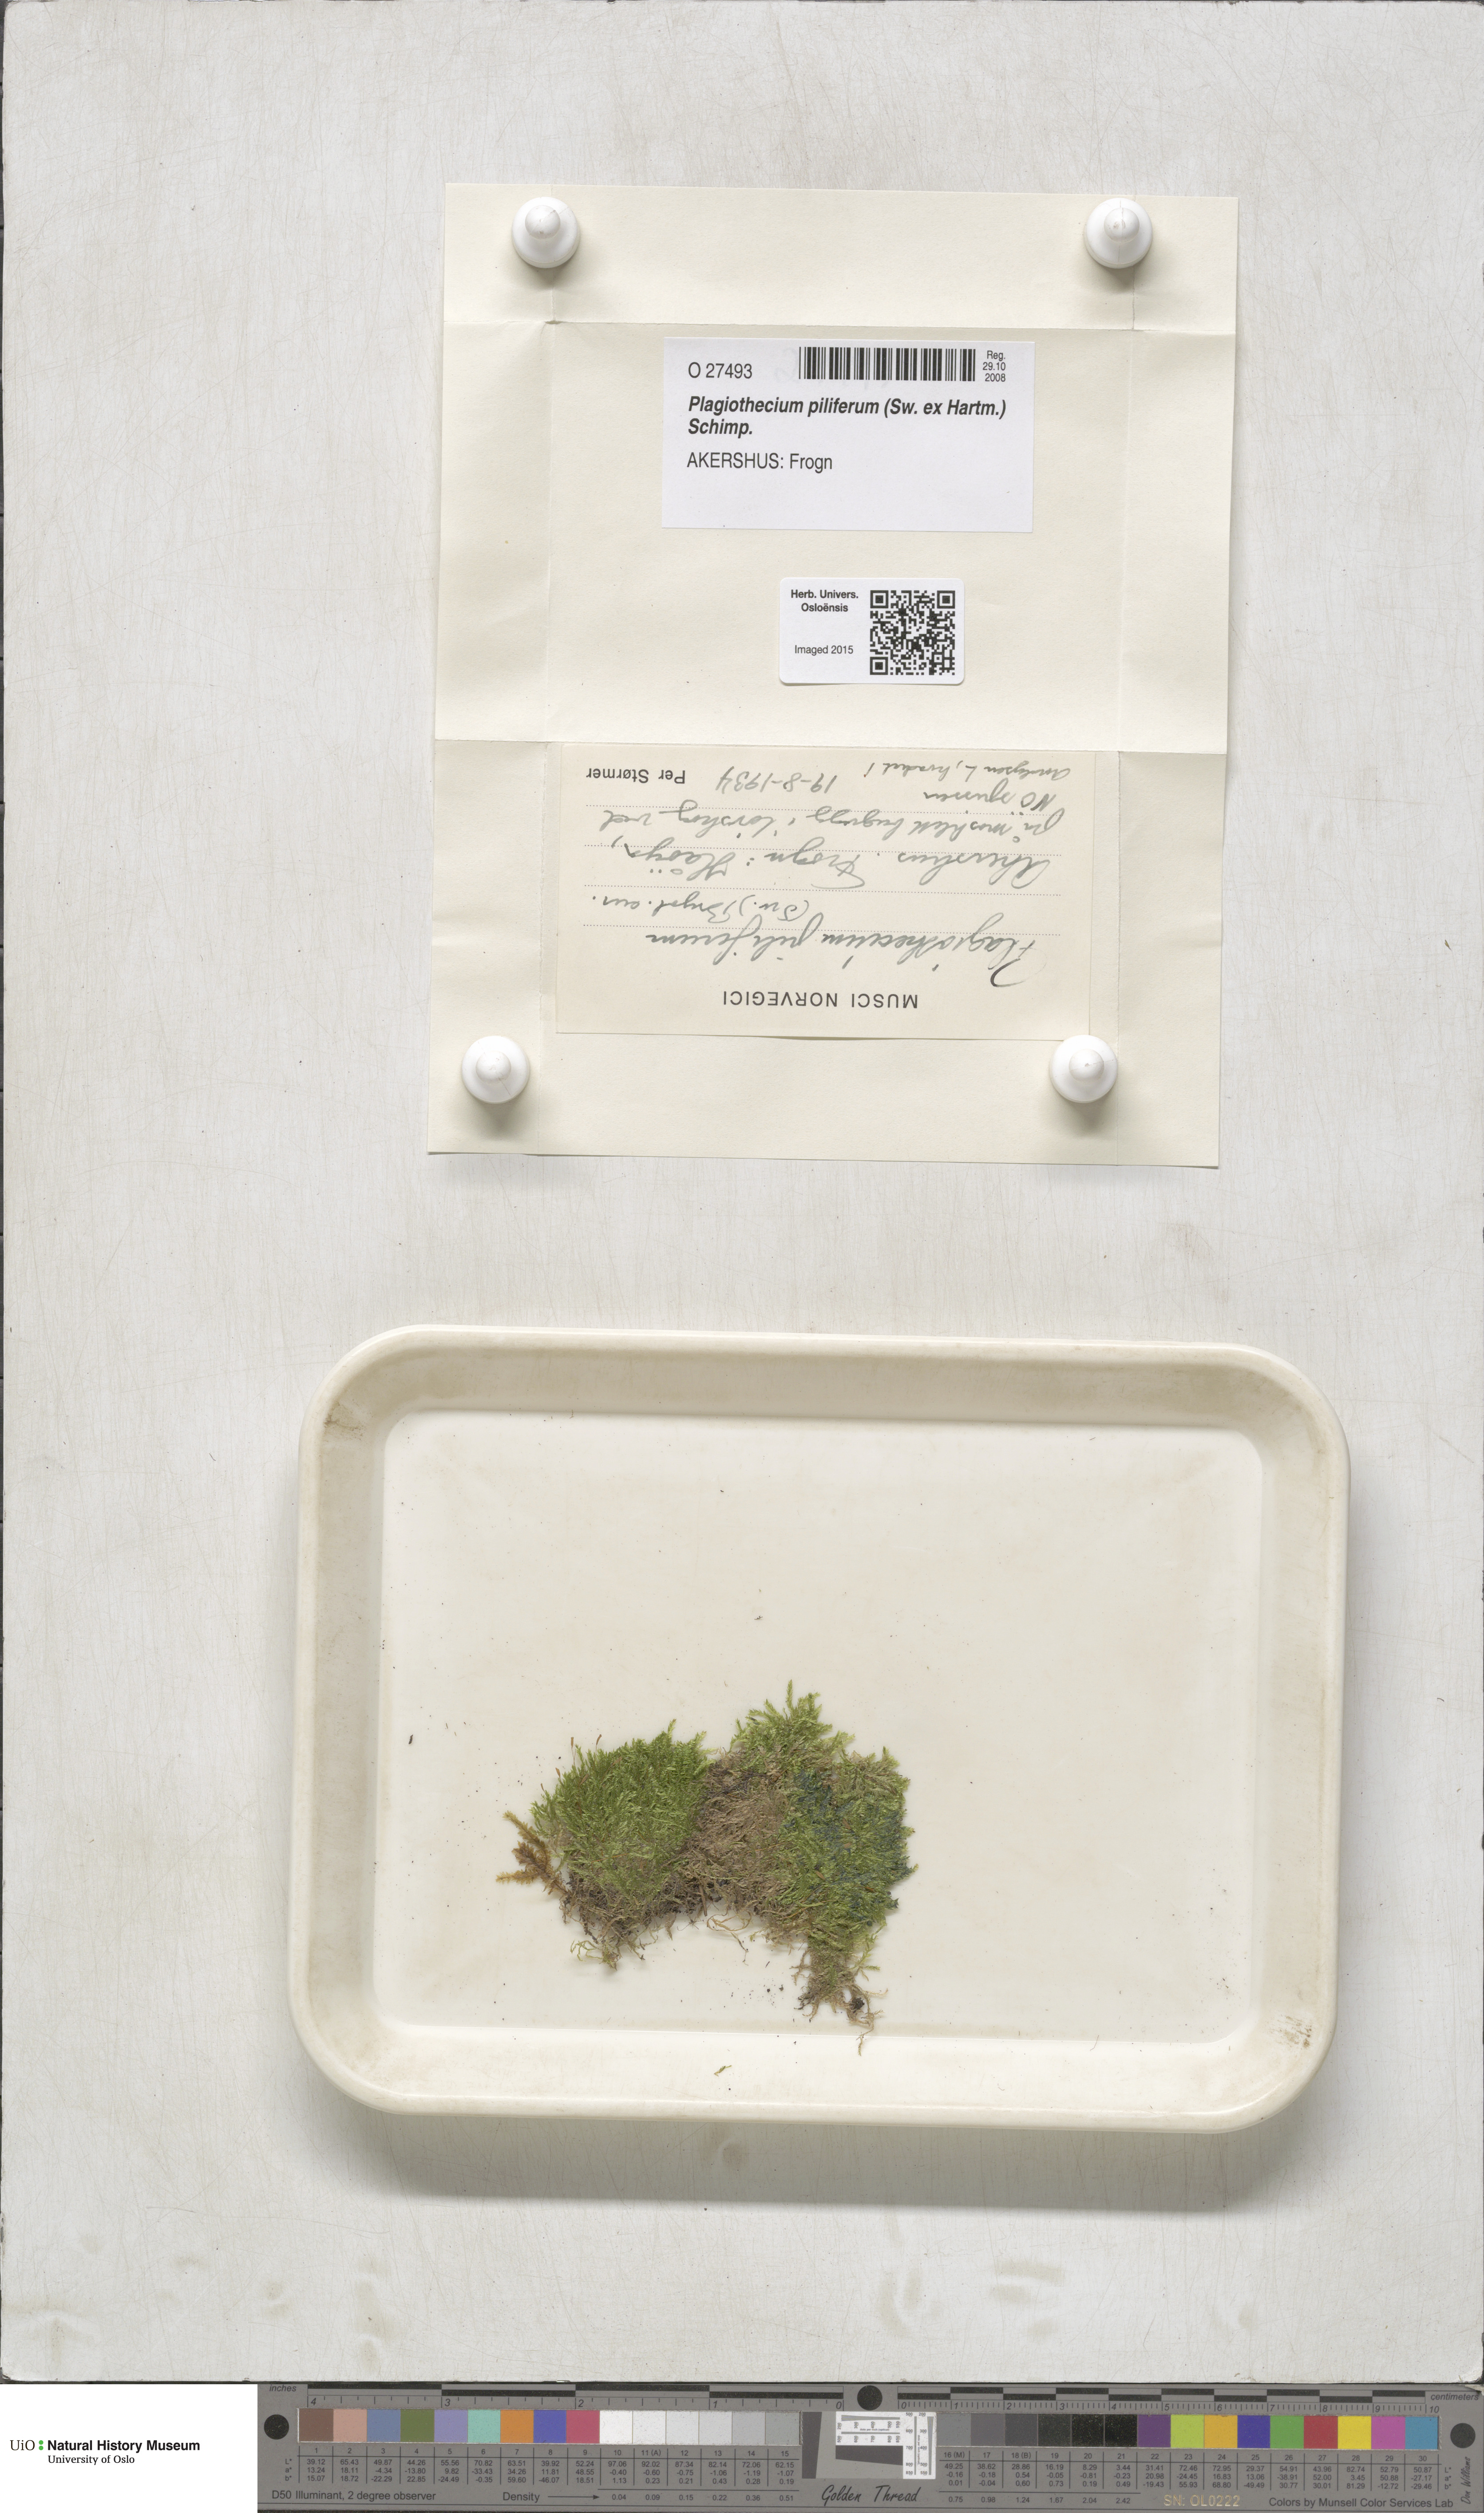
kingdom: Plantae
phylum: Bryophyta
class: Bryopsida
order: Hypnales
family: Plagiotheciaceae
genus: Rectithecium
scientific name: Rectithecium piliferum
